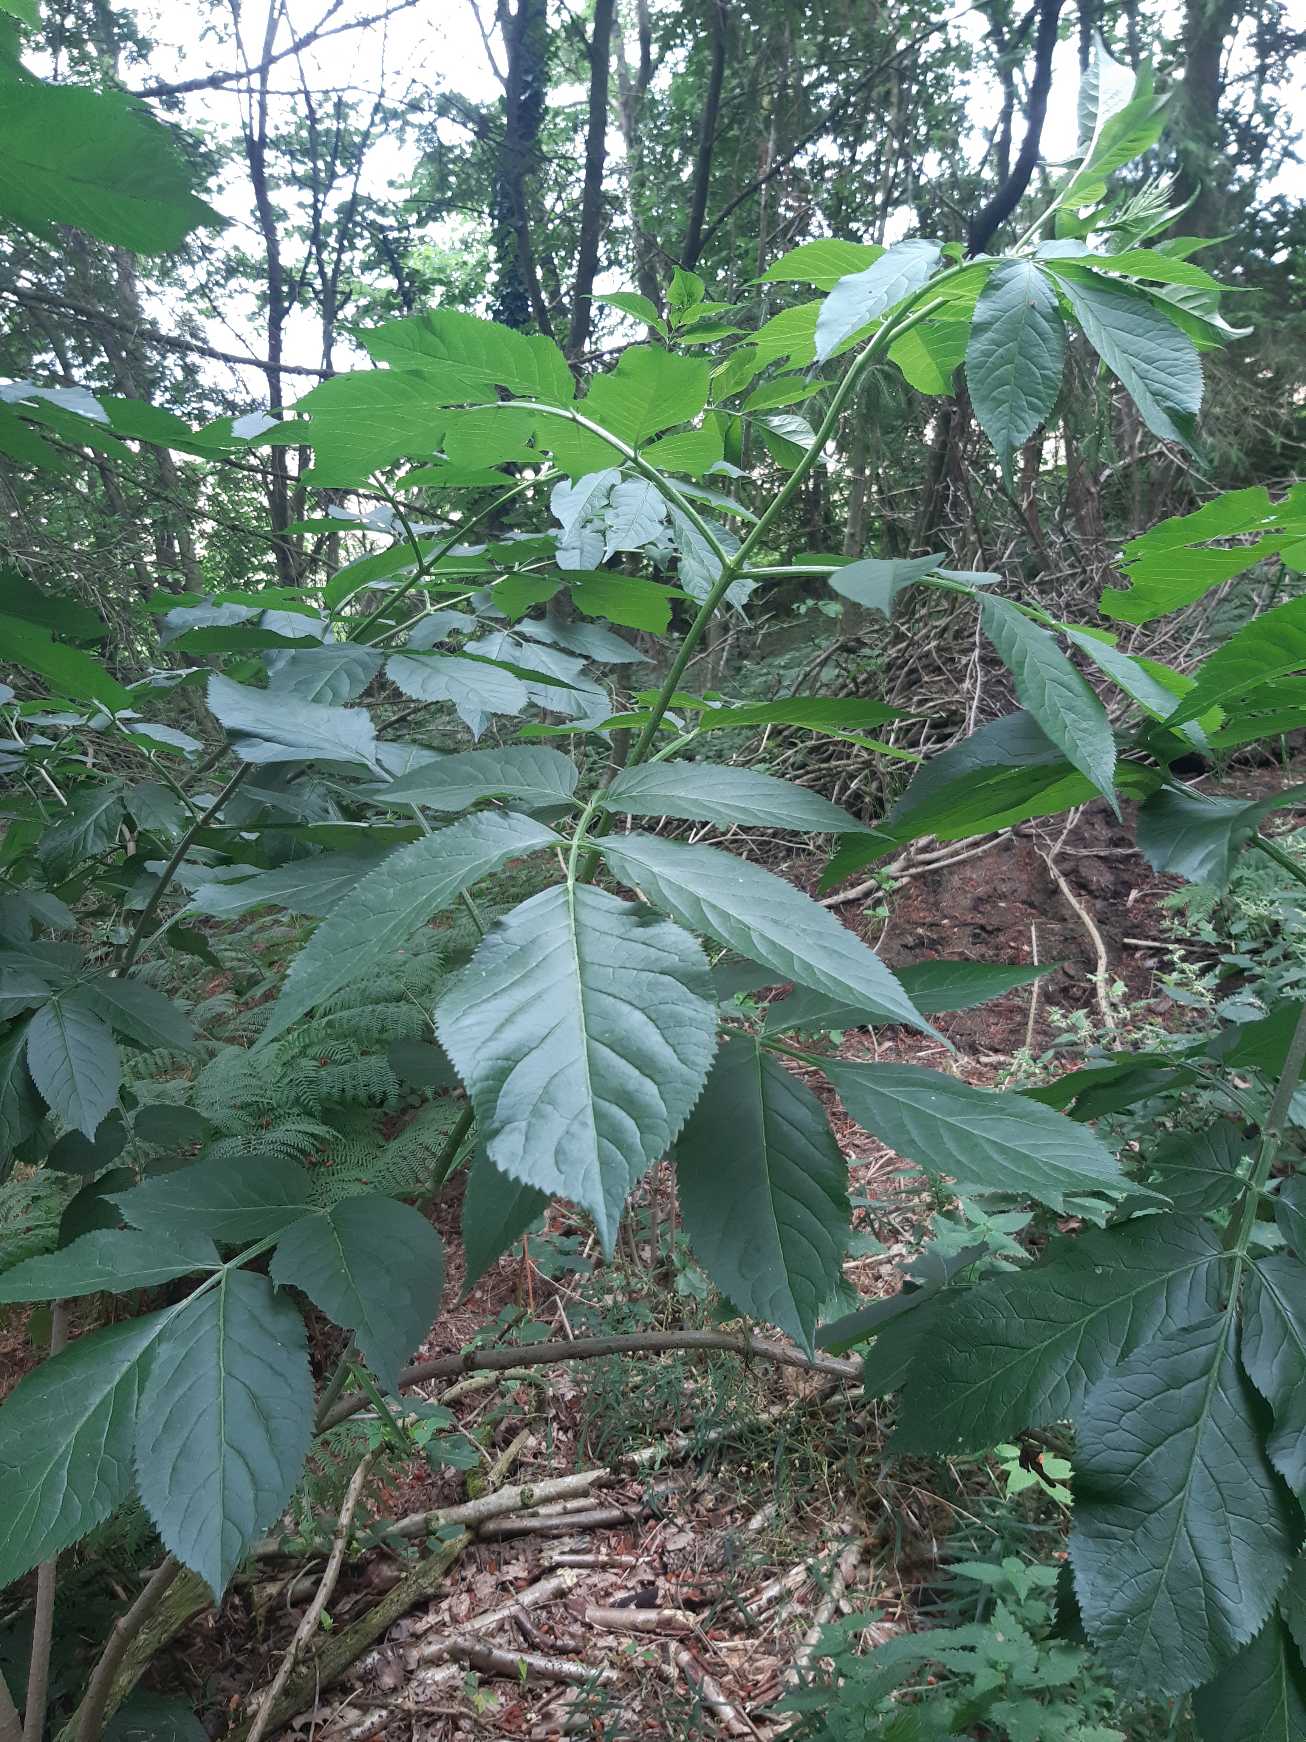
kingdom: Plantae
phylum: Tracheophyta
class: Magnoliopsida
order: Dipsacales
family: Viburnaceae
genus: Sambucus
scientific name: Sambucus nigra
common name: Almindelig hyld
